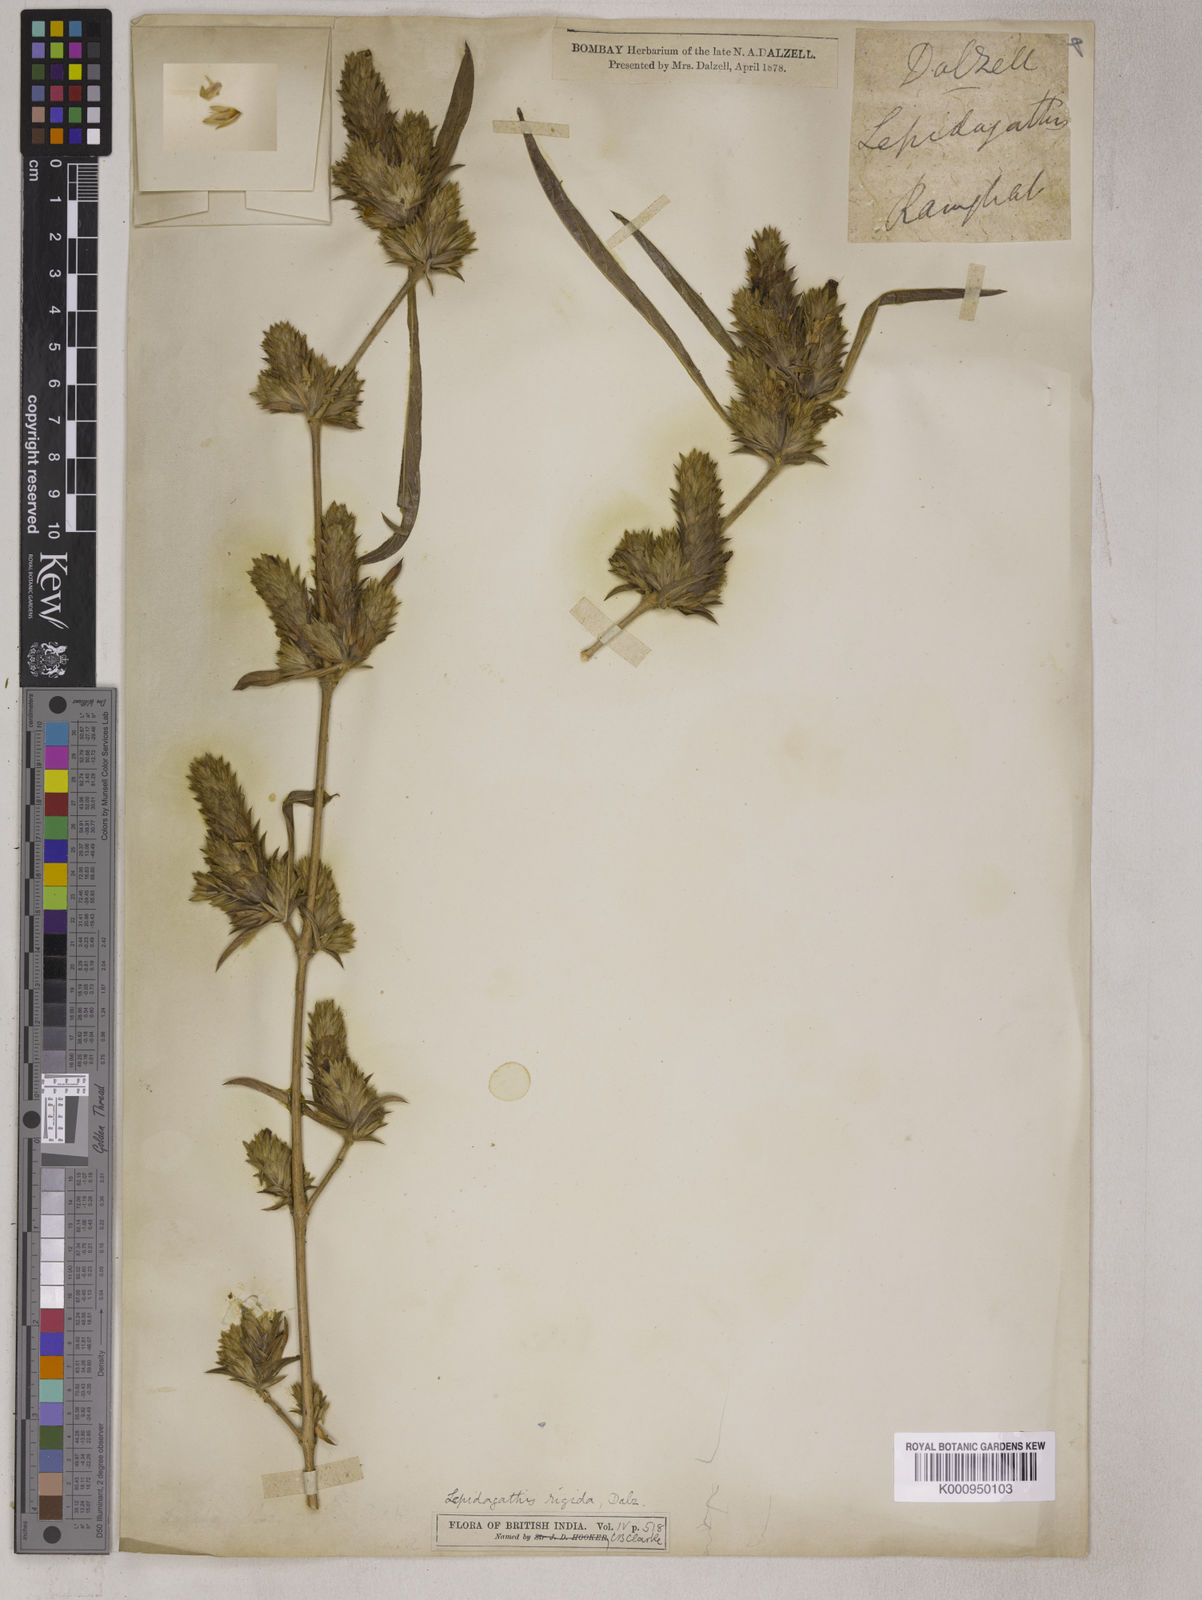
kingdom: Plantae
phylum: Tracheophyta
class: Magnoliopsida
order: Lamiales
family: Acanthaceae
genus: Lepidagathis
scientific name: Lepidagathis rigida
